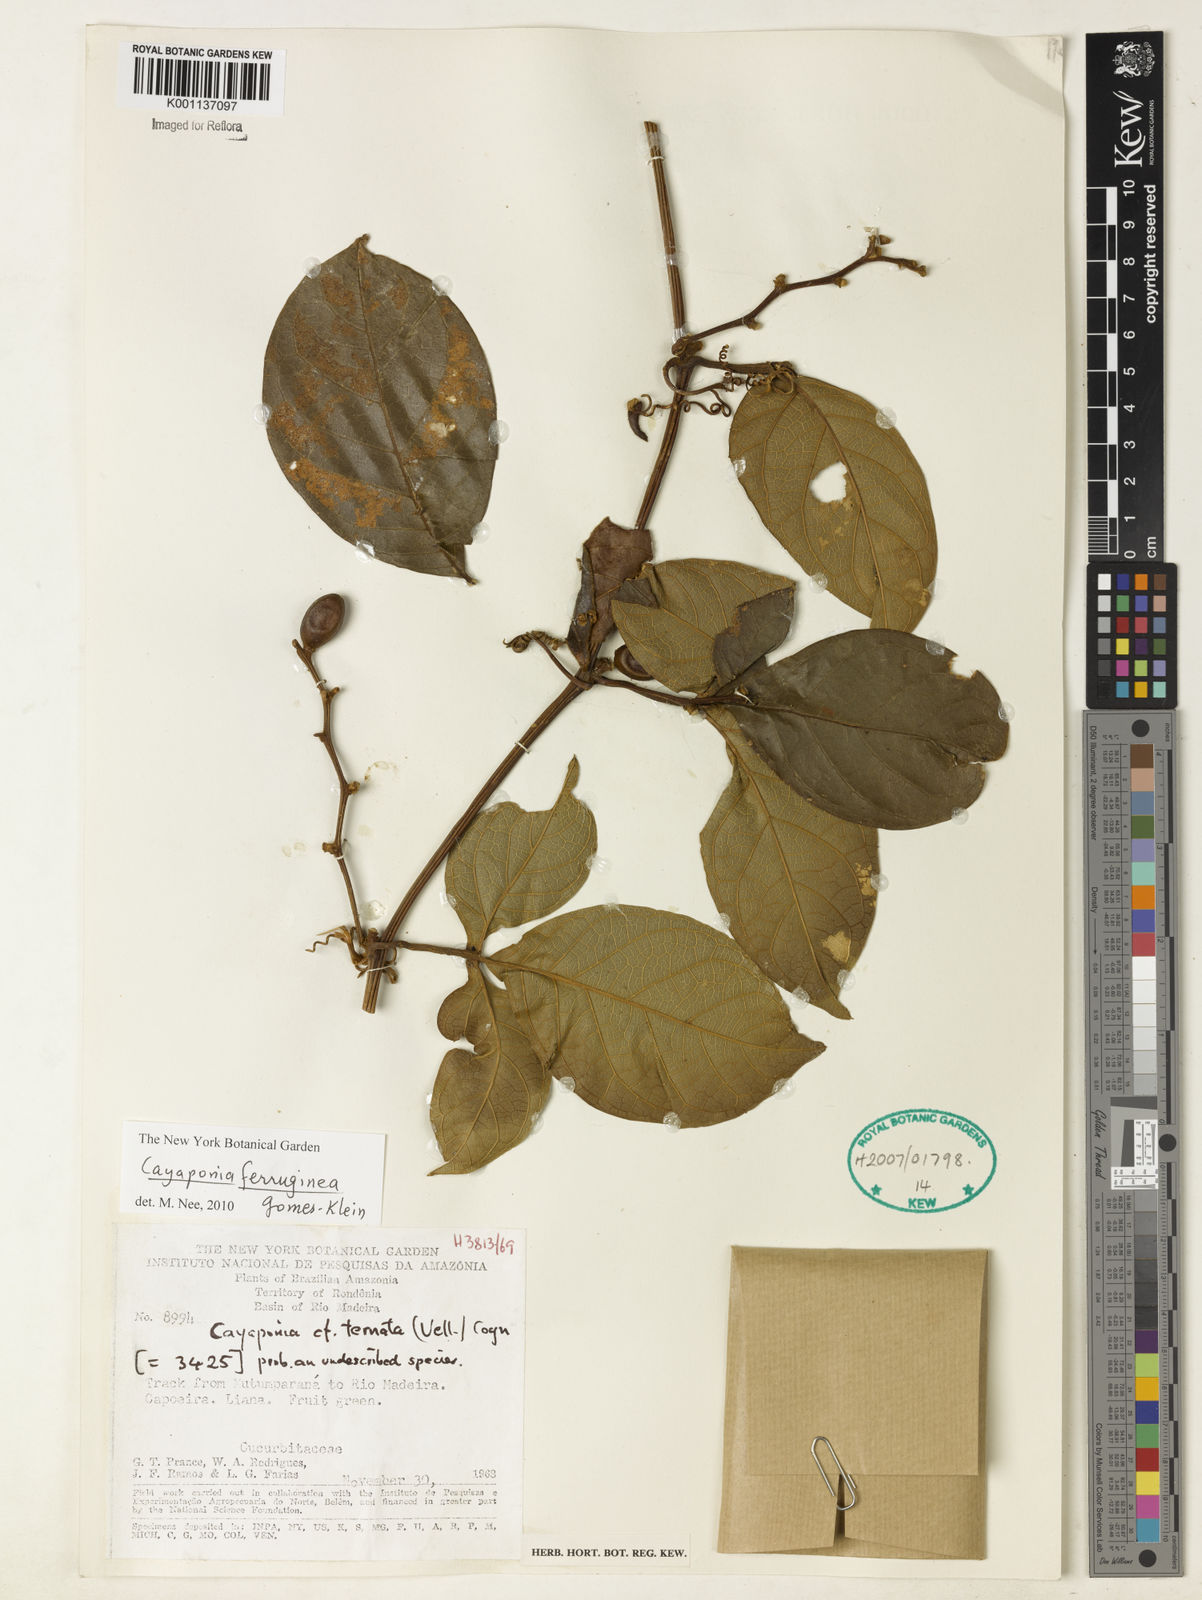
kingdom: Plantae
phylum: Tracheophyta
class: Magnoliopsida
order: Cucurbitales
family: Cucurbitaceae
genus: Cayaponia
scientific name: Cayaponia ferruginea
